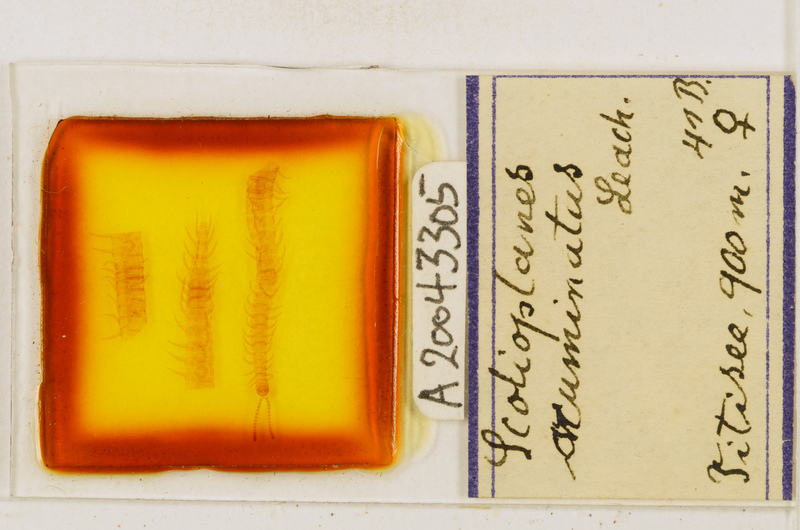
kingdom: Animalia
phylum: Arthropoda
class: Chilopoda
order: Geophilomorpha
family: Linotaeniidae
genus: Strigamia
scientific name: Strigamia acuminata
